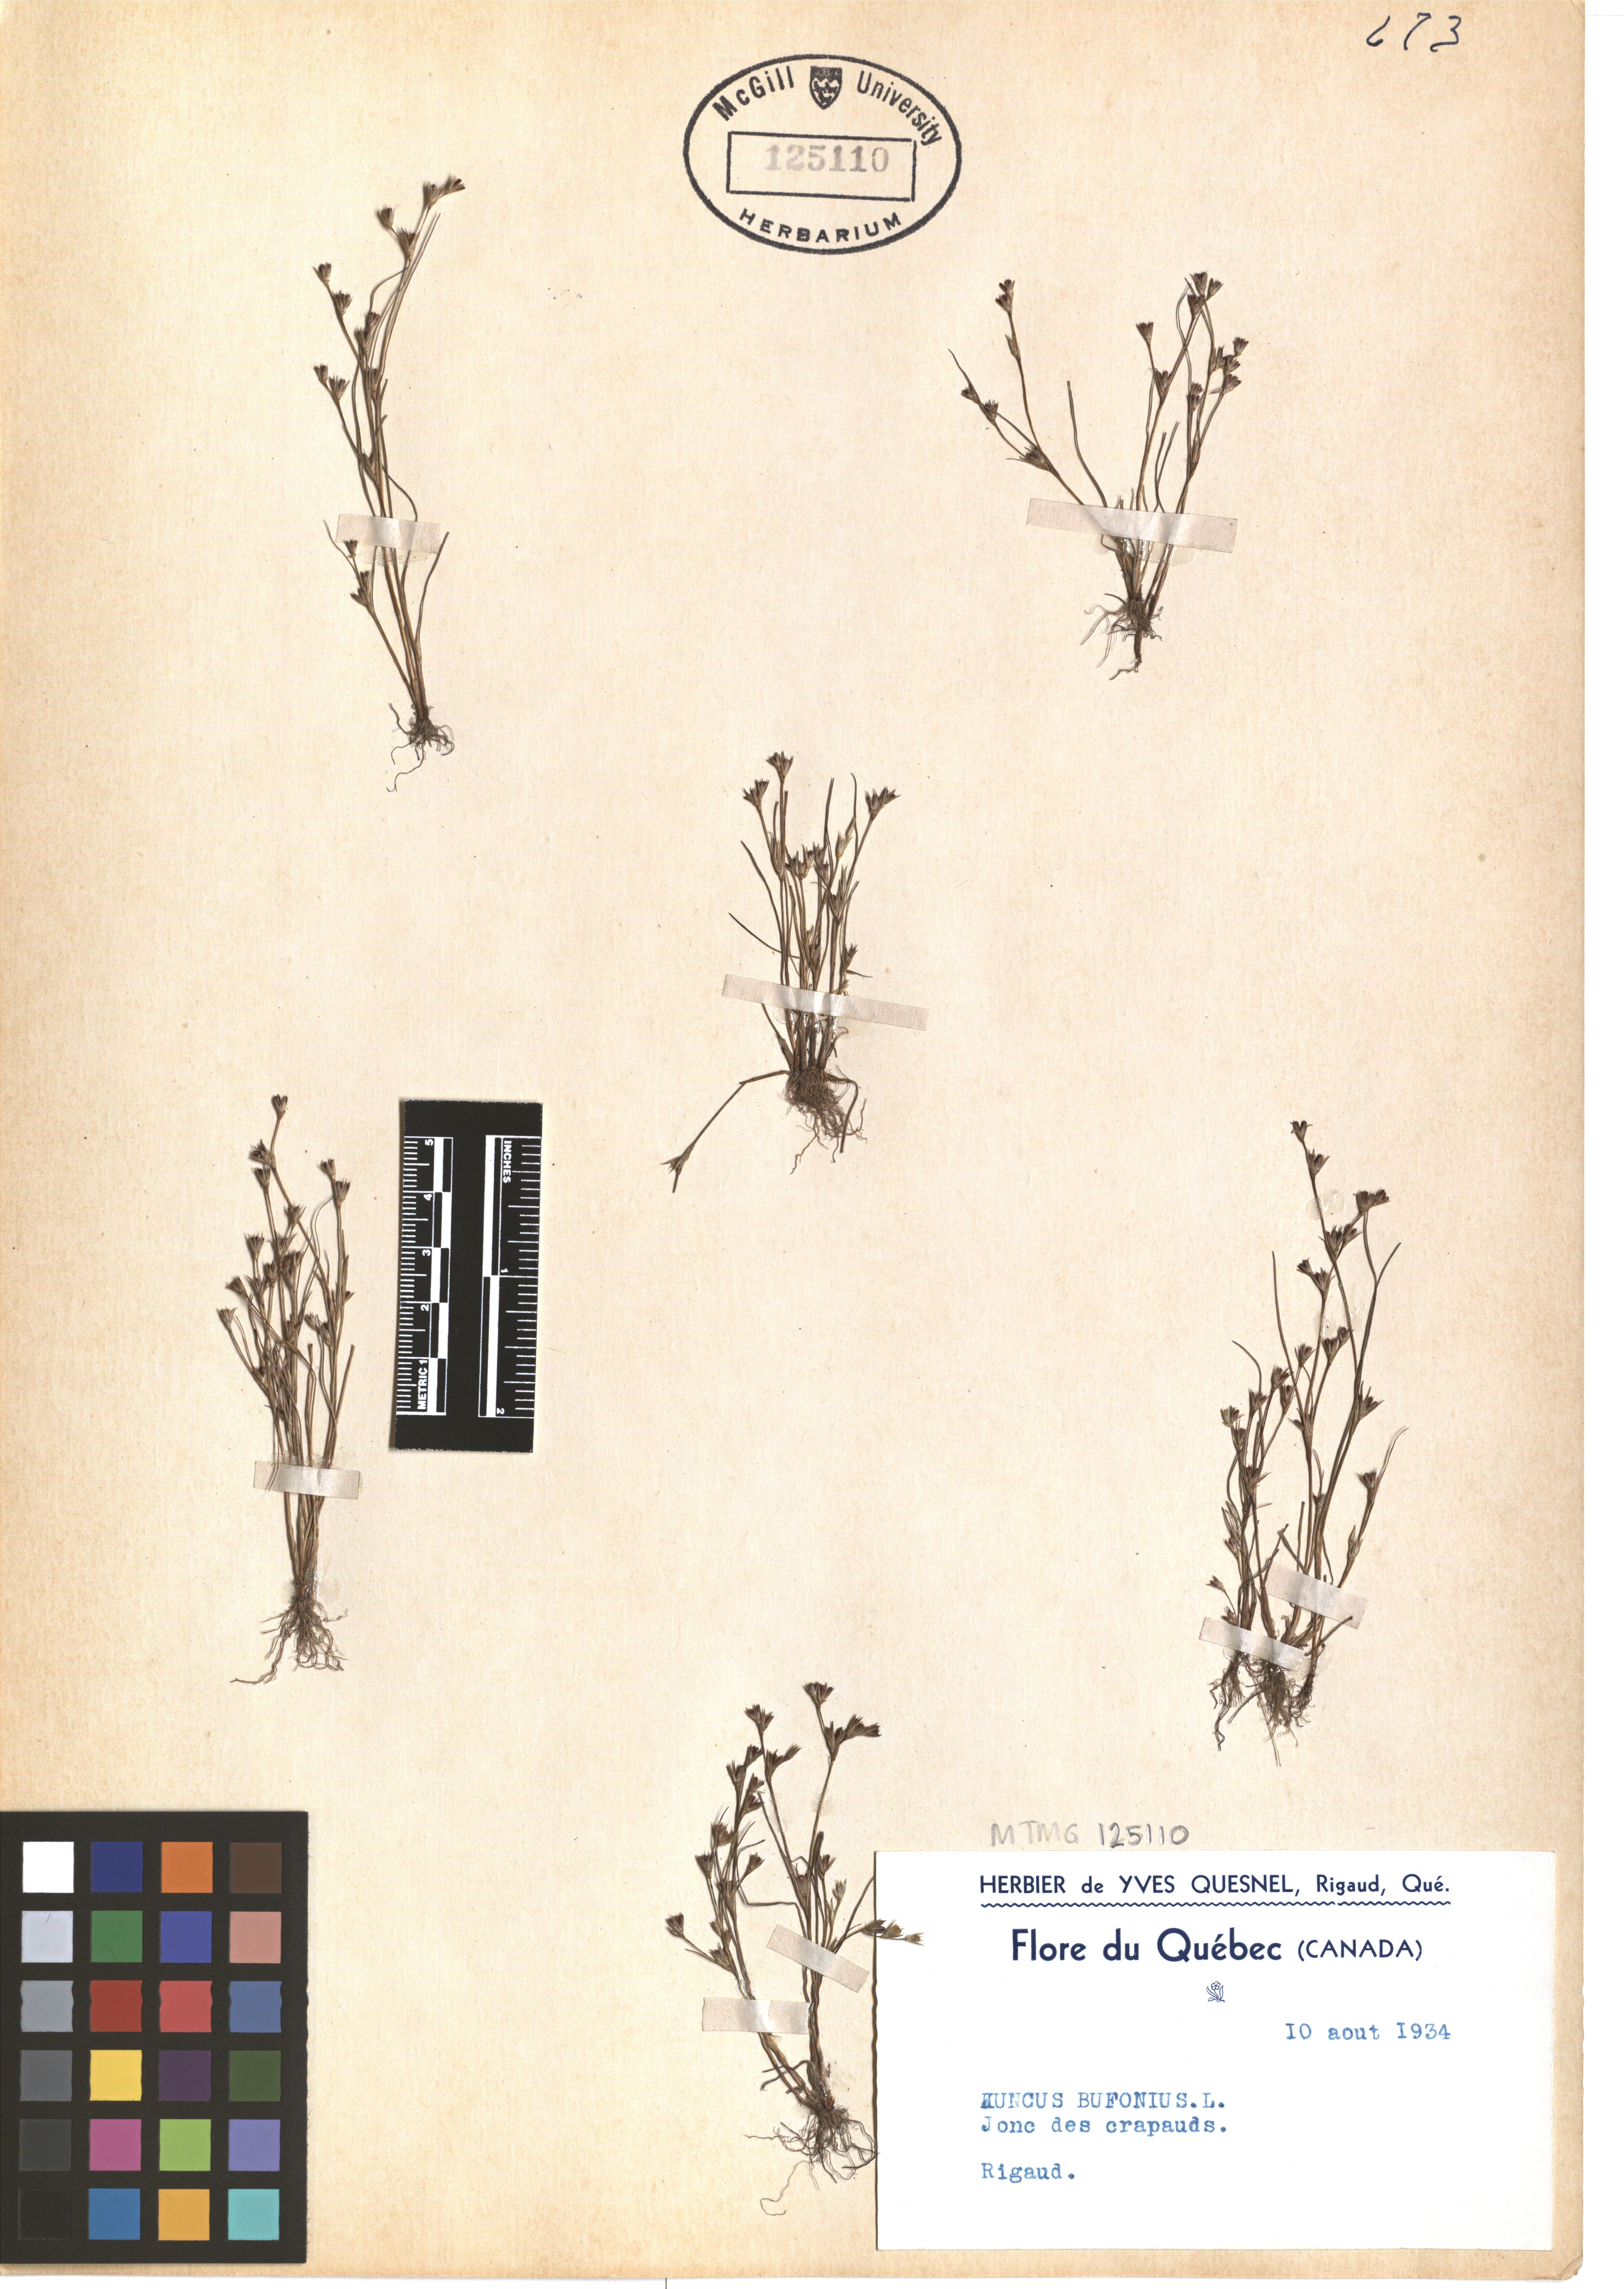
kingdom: Plantae
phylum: Tracheophyta
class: Liliopsida
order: Poales
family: Juncaceae
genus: Juncus
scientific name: Juncus bufonius
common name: Toad rush
